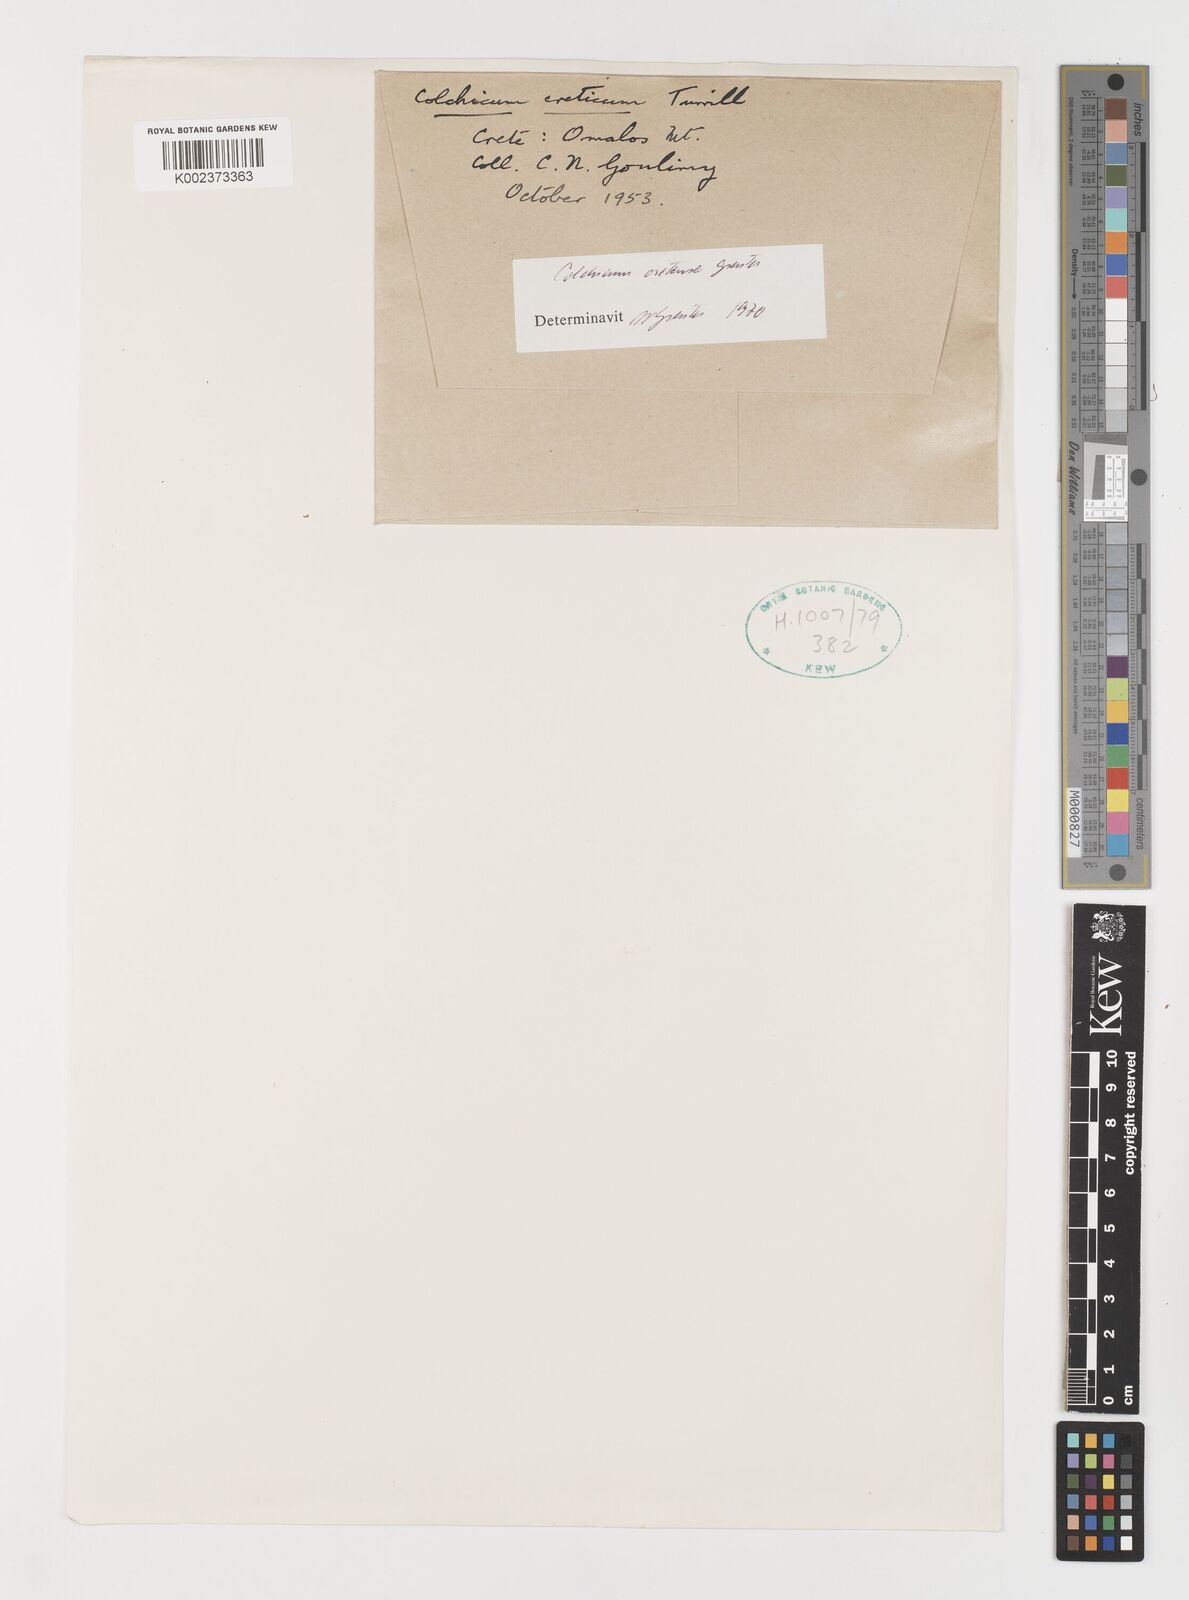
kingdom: Plantae
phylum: Tracheophyta
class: Liliopsida
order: Liliales
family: Colchicaceae
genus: Colchicum
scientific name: Colchicum cretense
